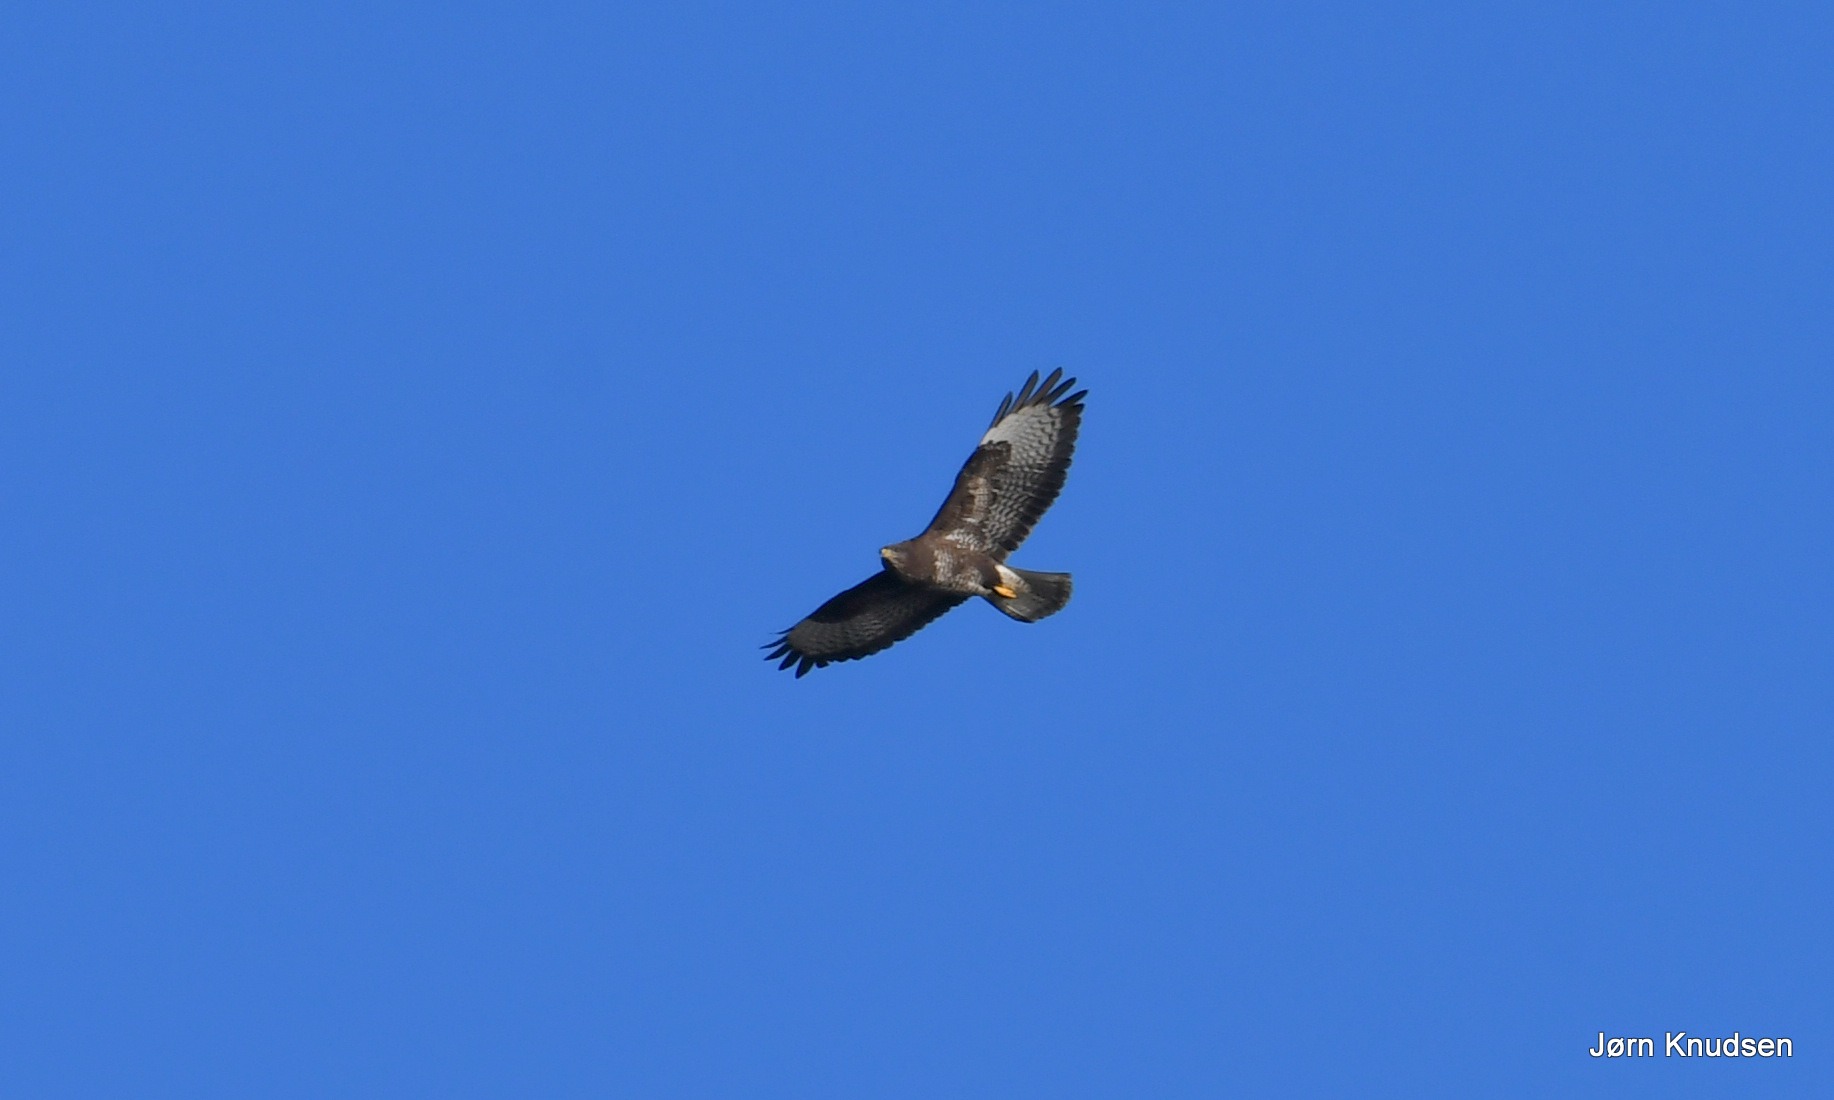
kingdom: Animalia
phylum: Chordata
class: Aves
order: Accipitriformes
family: Accipitridae
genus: Buteo
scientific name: Buteo buteo
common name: Musvåge
